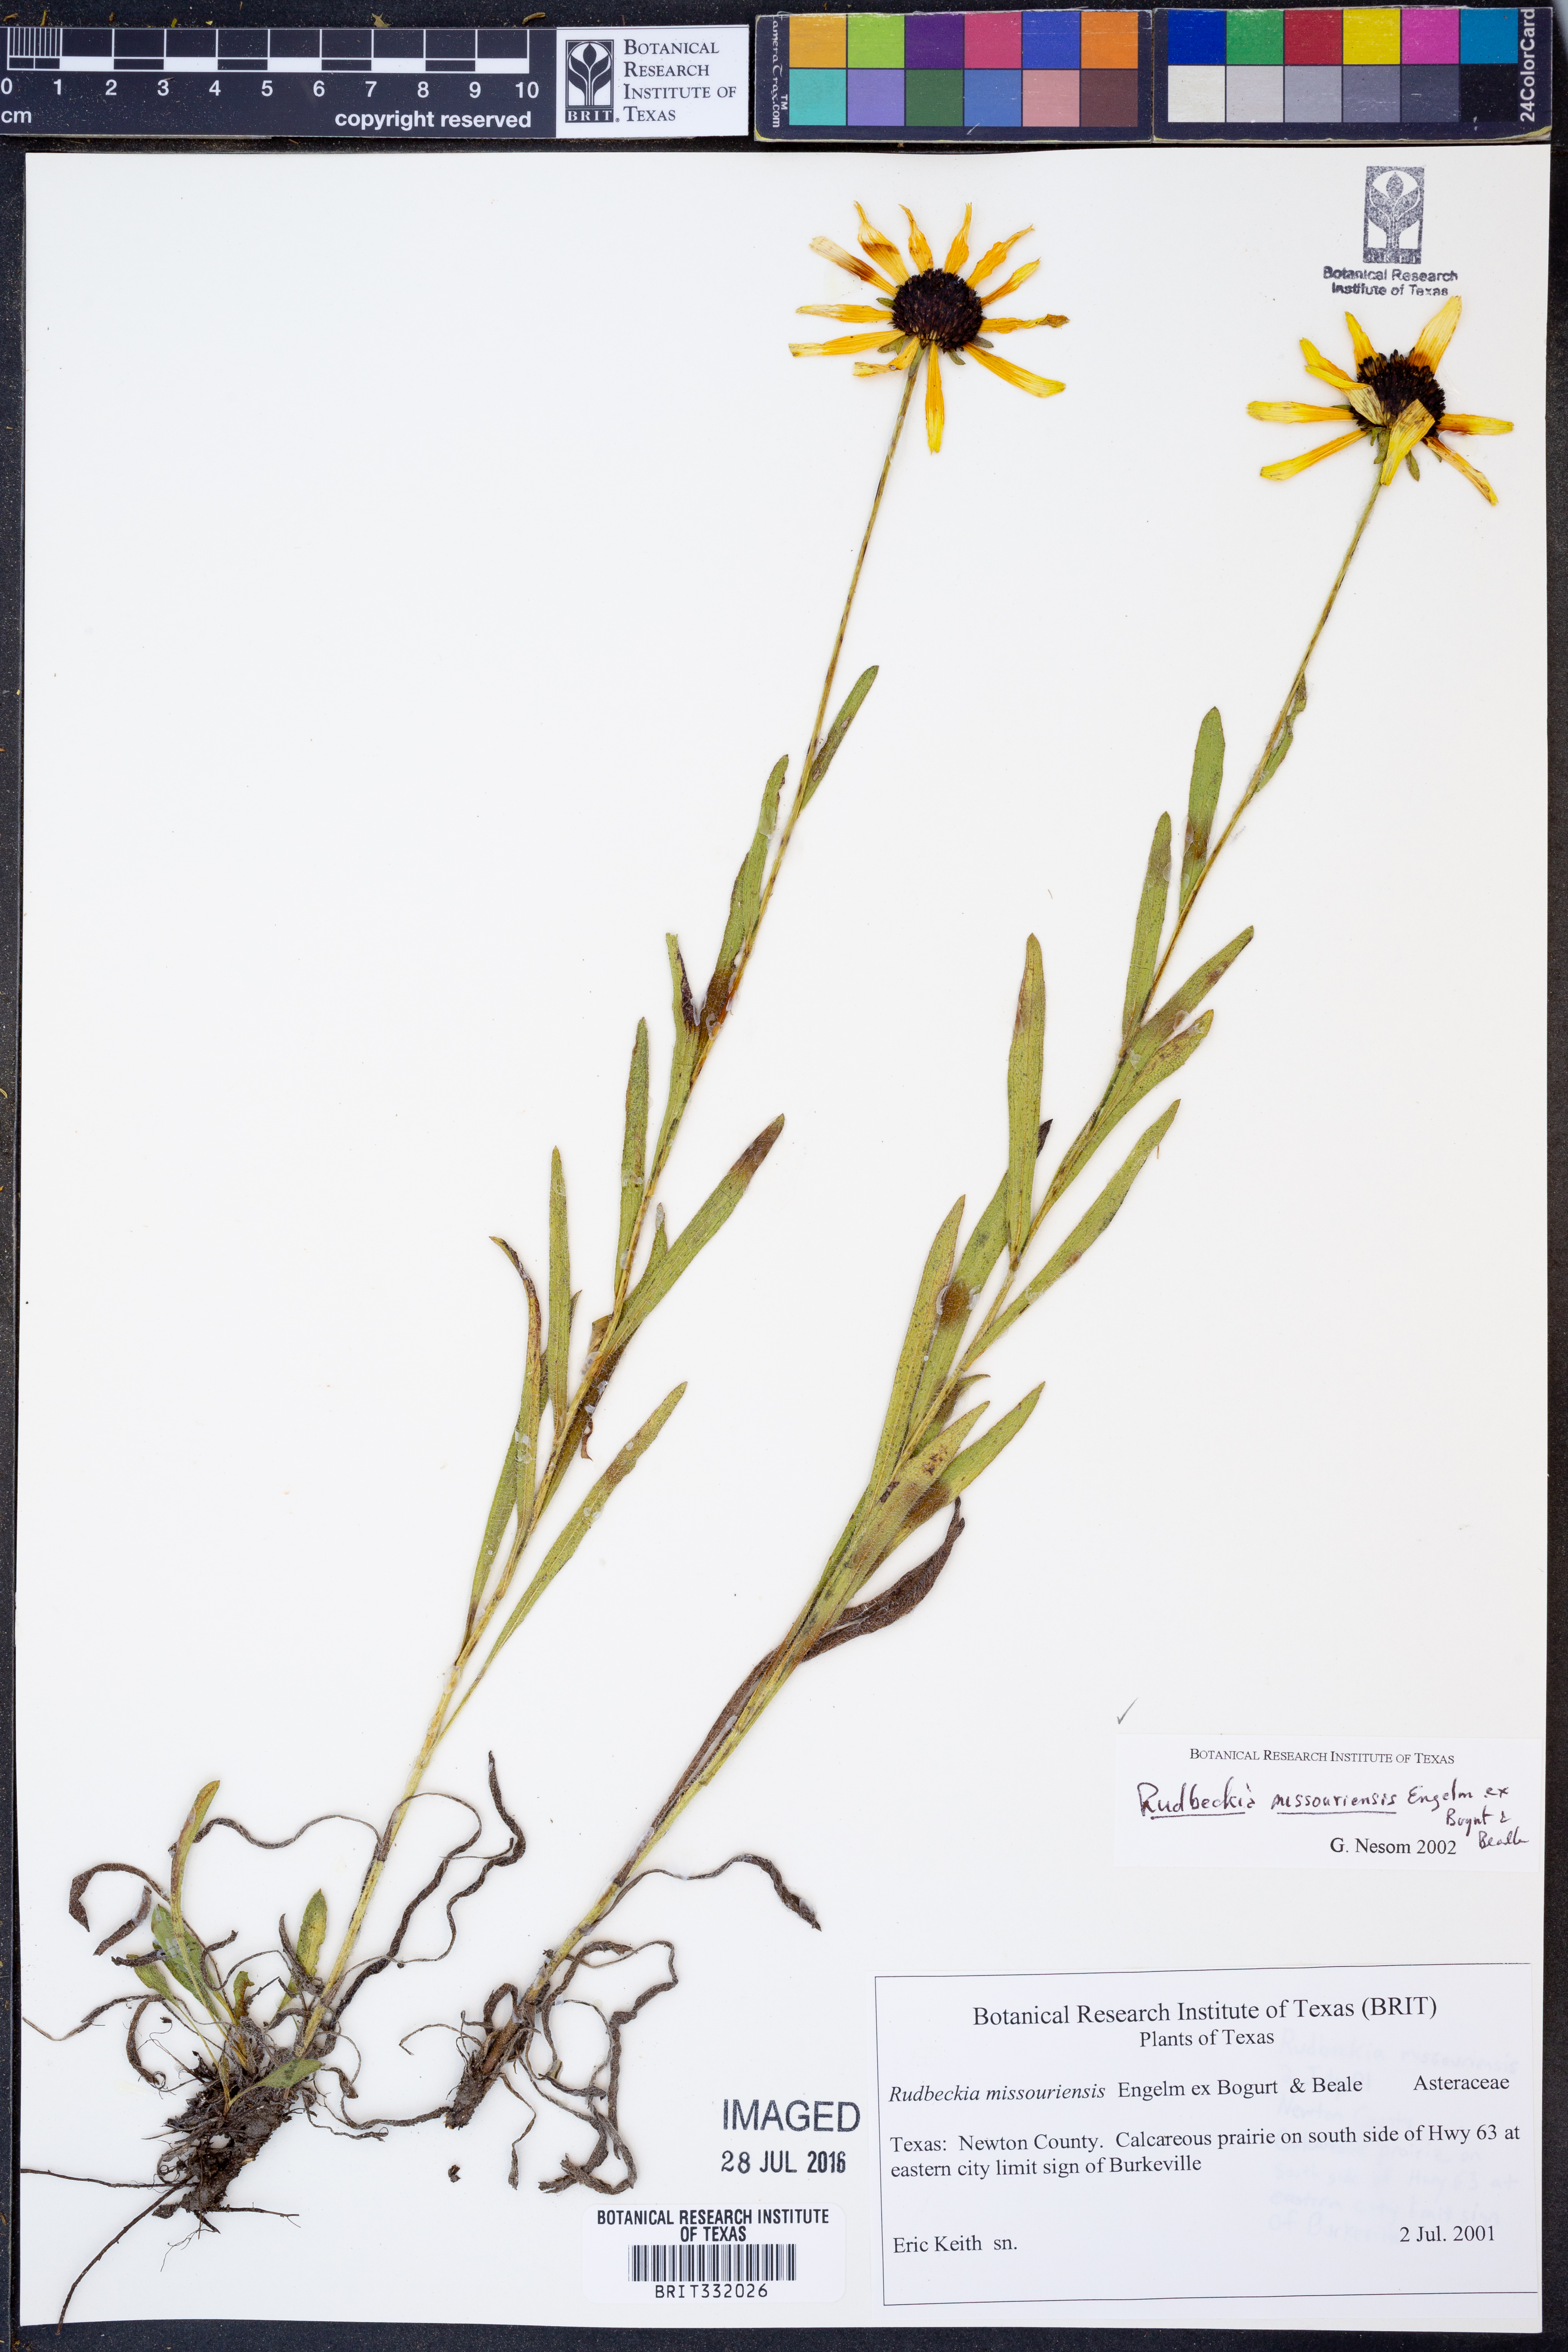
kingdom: Plantae
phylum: Tracheophyta
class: Magnoliopsida
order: Asterales
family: Asteraceae
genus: Rudbeckia
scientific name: Rudbeckia missouriensis
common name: Missouri coneflower
